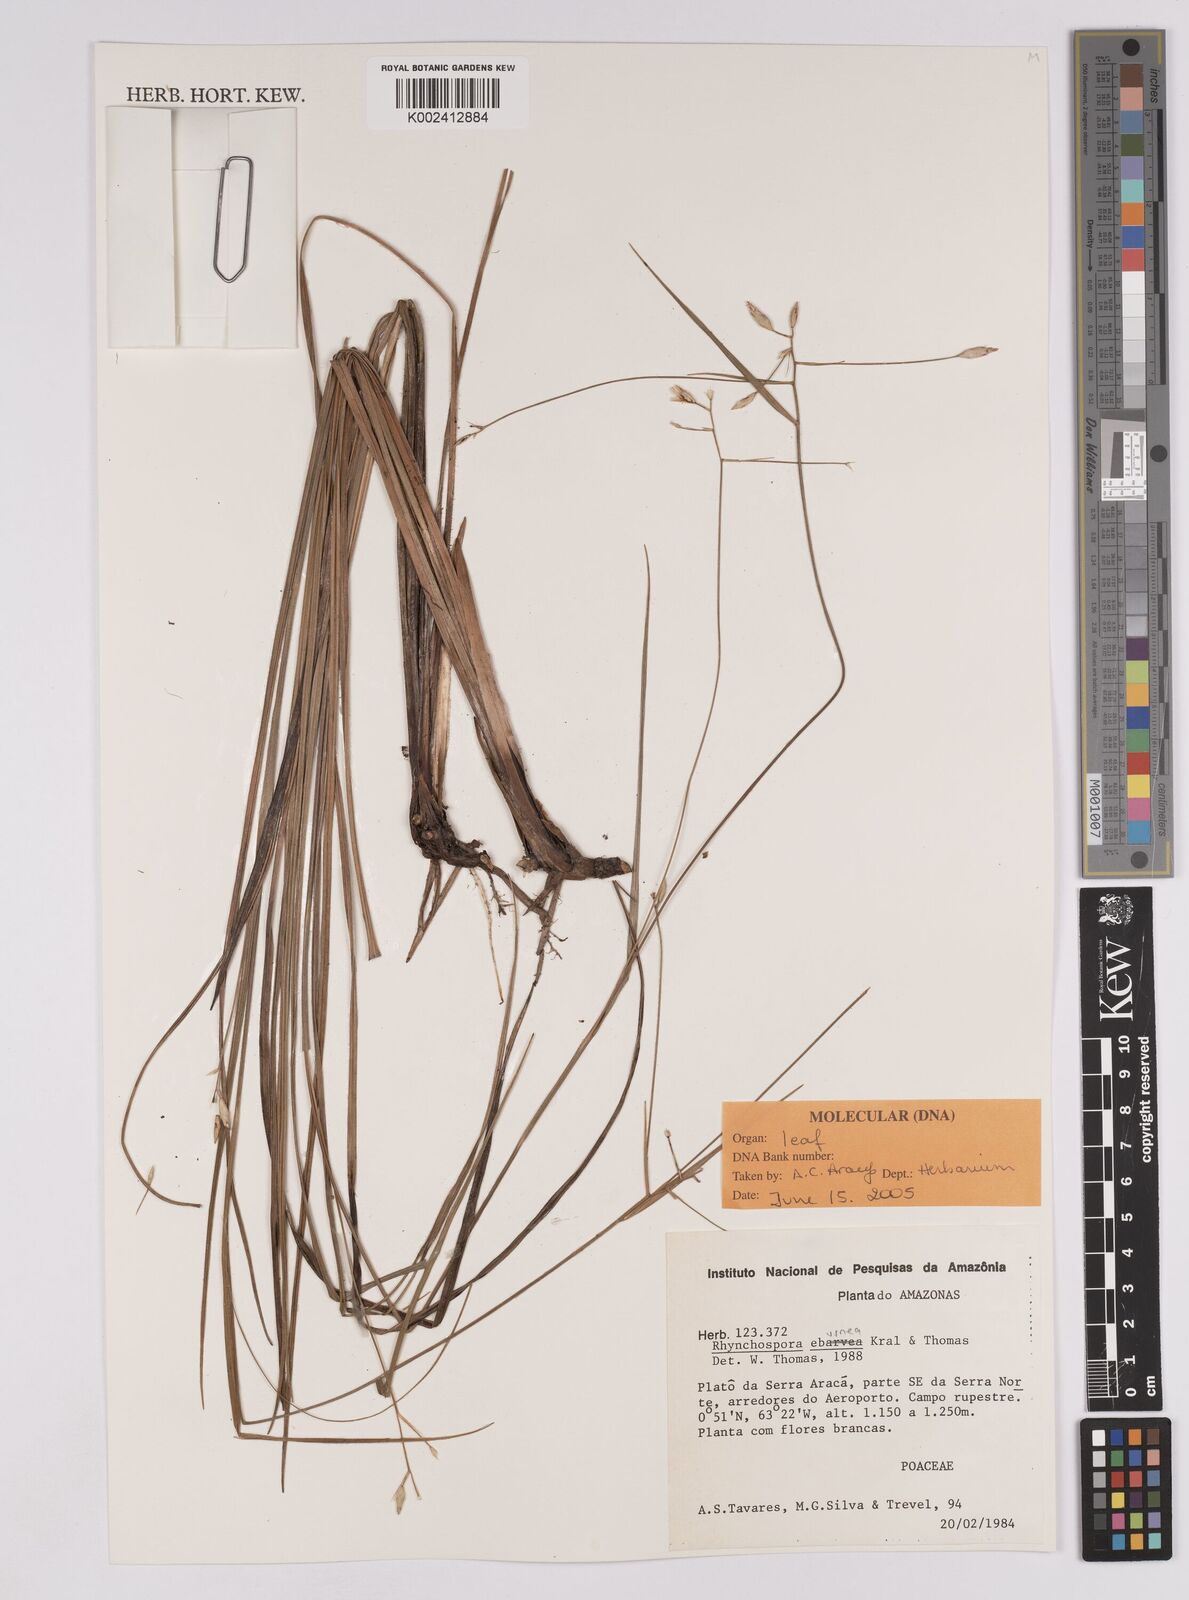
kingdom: Plantae
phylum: Tracheophyta
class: Liliopsida
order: Poales
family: Cyperaceae
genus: Rhynchospora
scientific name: Rhynchospora eburnea
